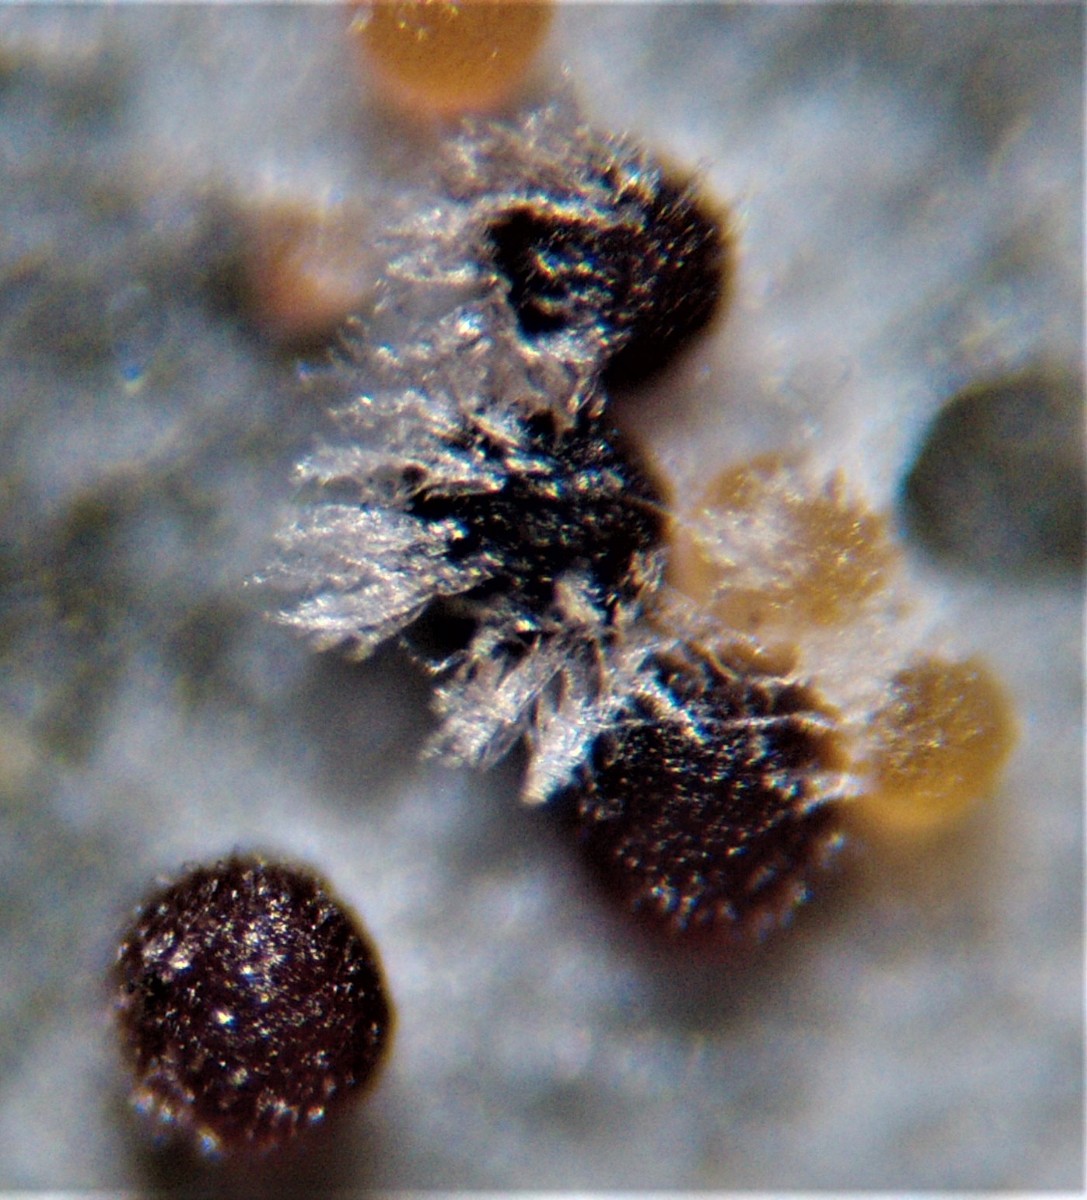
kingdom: Fungi
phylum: Ascomycota
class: Leotiomycetes
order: Helotiales
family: Erysiphaceae
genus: Sawadaea
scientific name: Sawadaea
